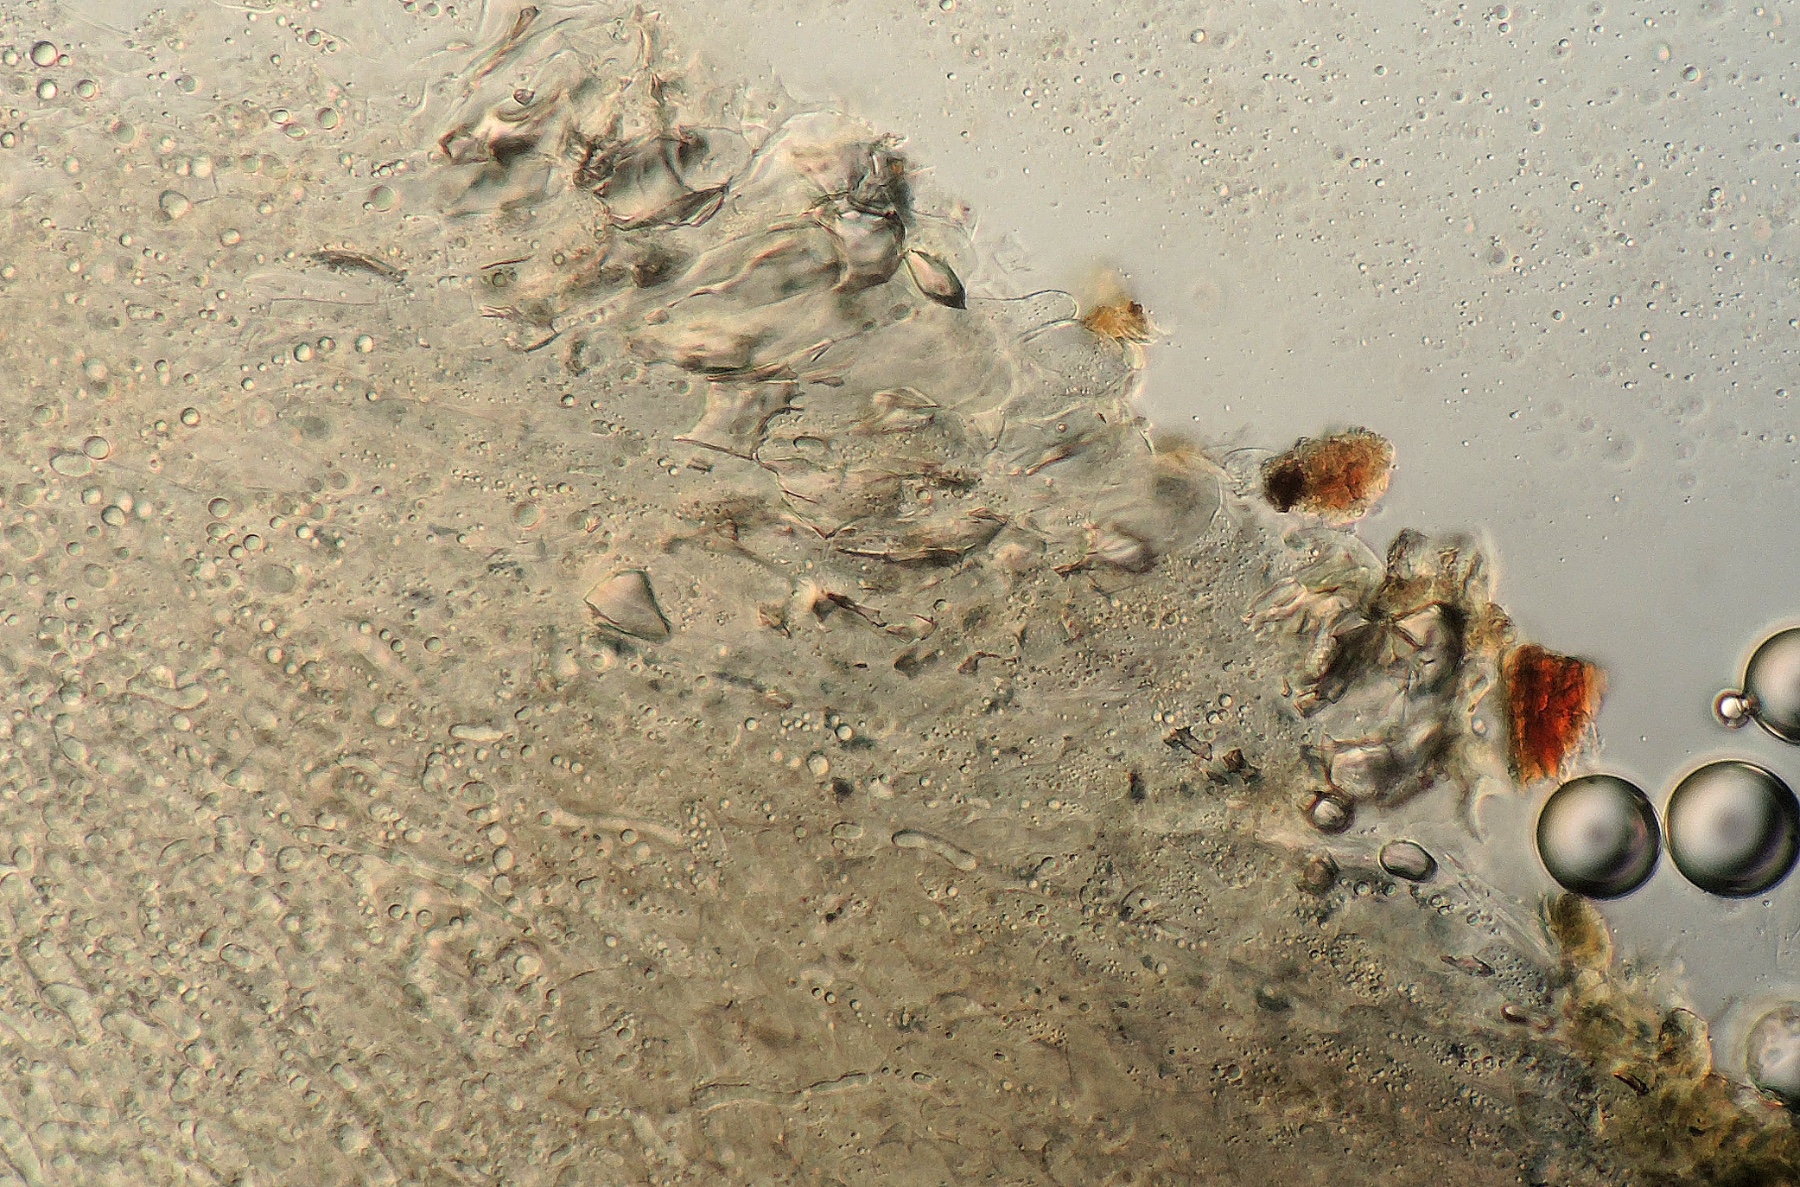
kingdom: Fungi
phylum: Basidiomycota
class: Agaricomycetes
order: Agaricales
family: Entolomataceae
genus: Entoloma
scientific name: Entoloma violaceoserrulatum
